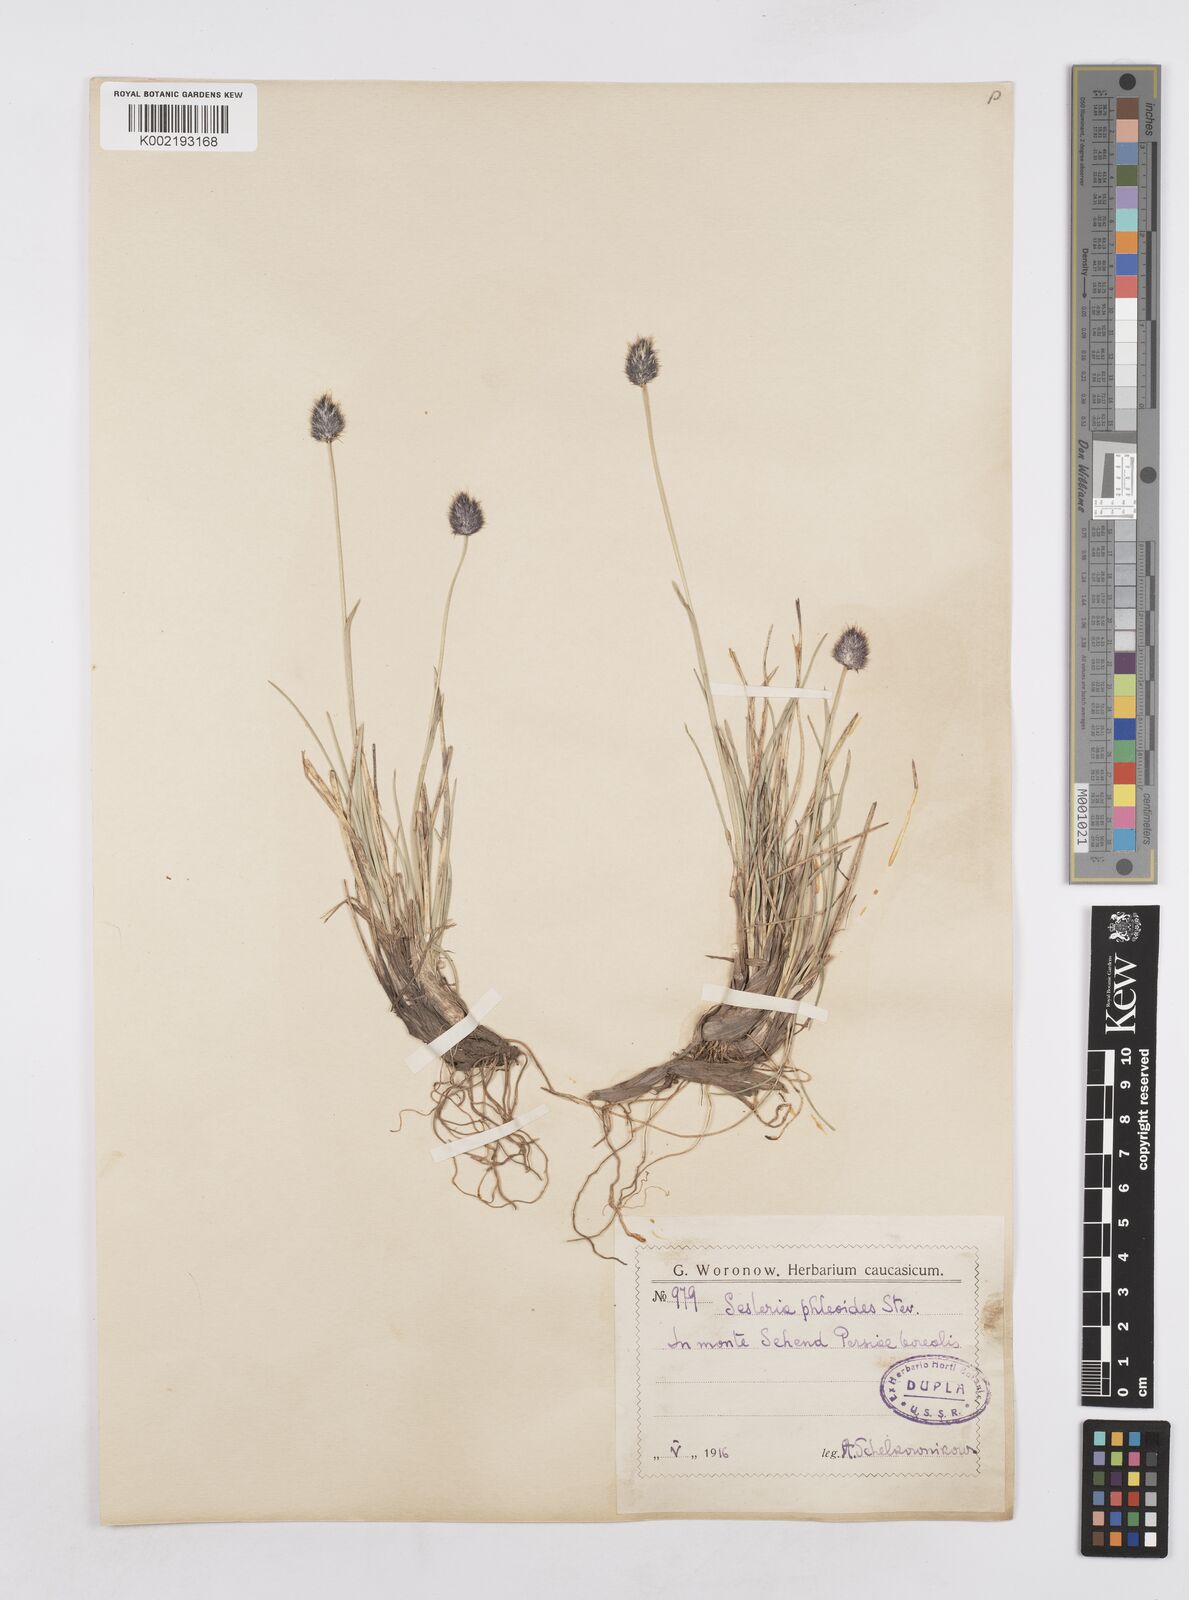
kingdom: Plantae
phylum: Tracheophyta
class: Liliopsida
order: Poales
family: Poaceae
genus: Sesleria
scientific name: Sesleria phleoides
